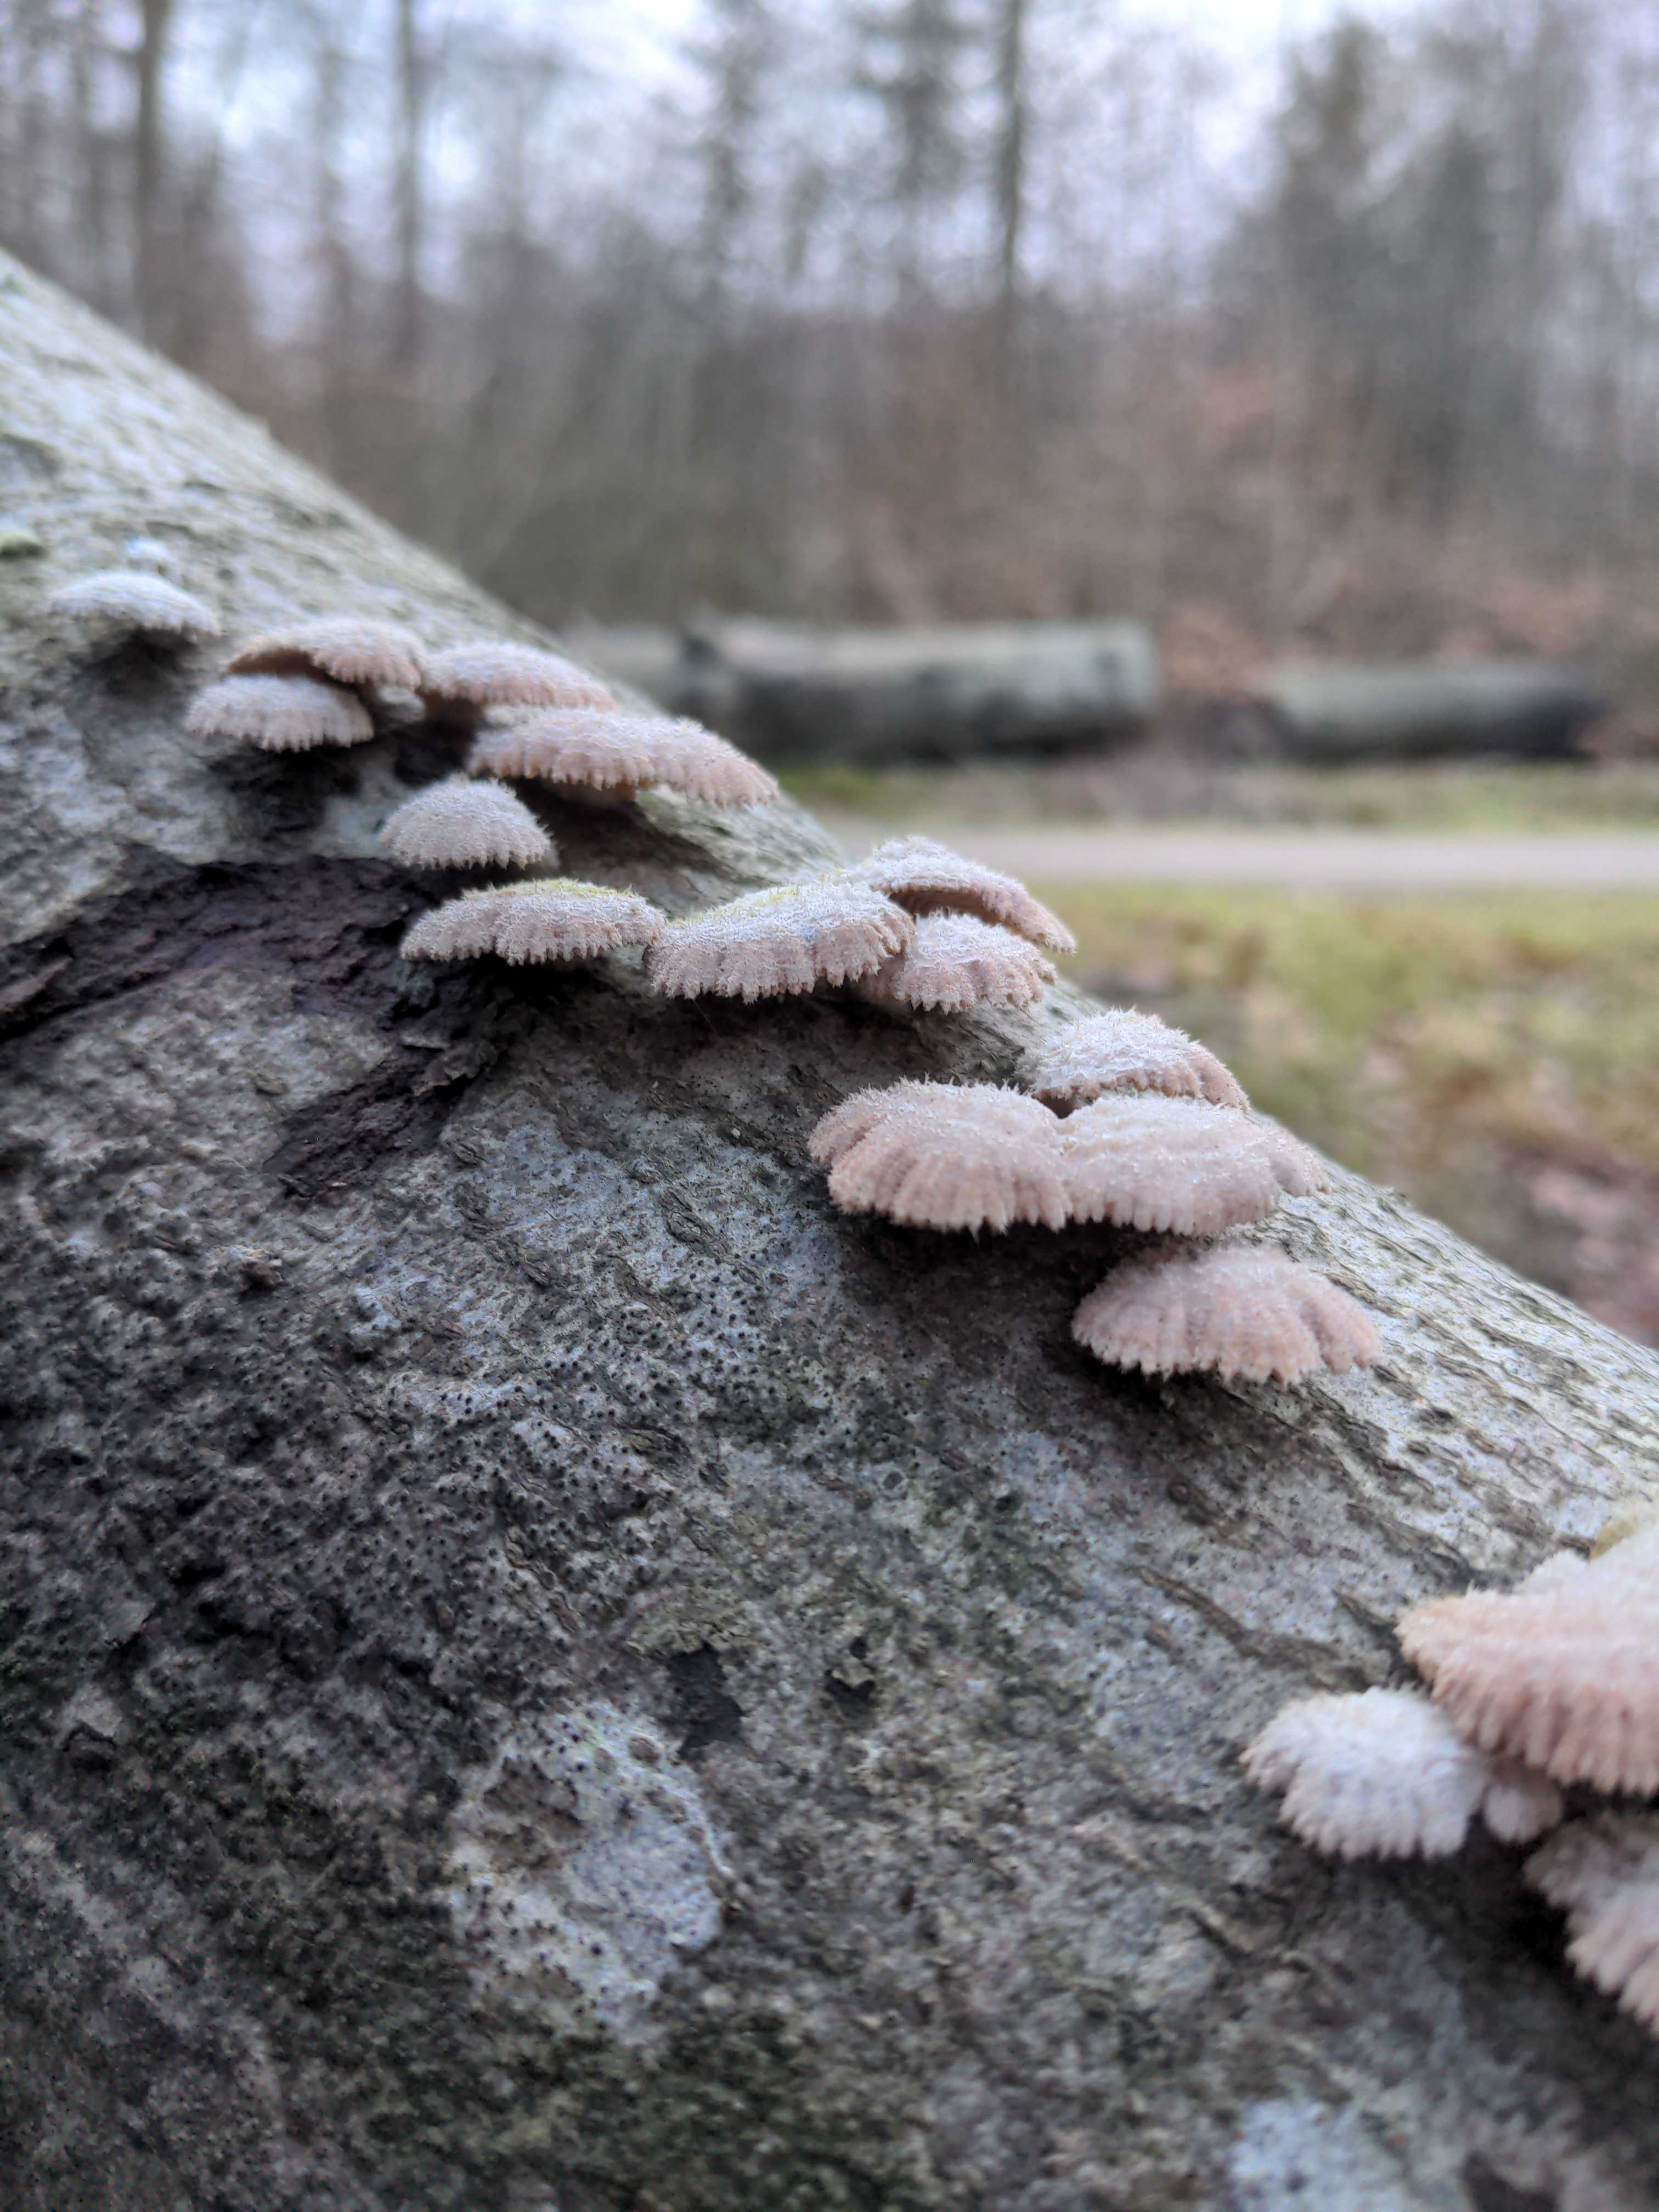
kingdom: Fungi
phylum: Basidiomycota
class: Agaricomycetes
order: Agaricales
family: Schizophyllaceae
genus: Schizophyllum
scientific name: Schizophyllum commune
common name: kløvblad
